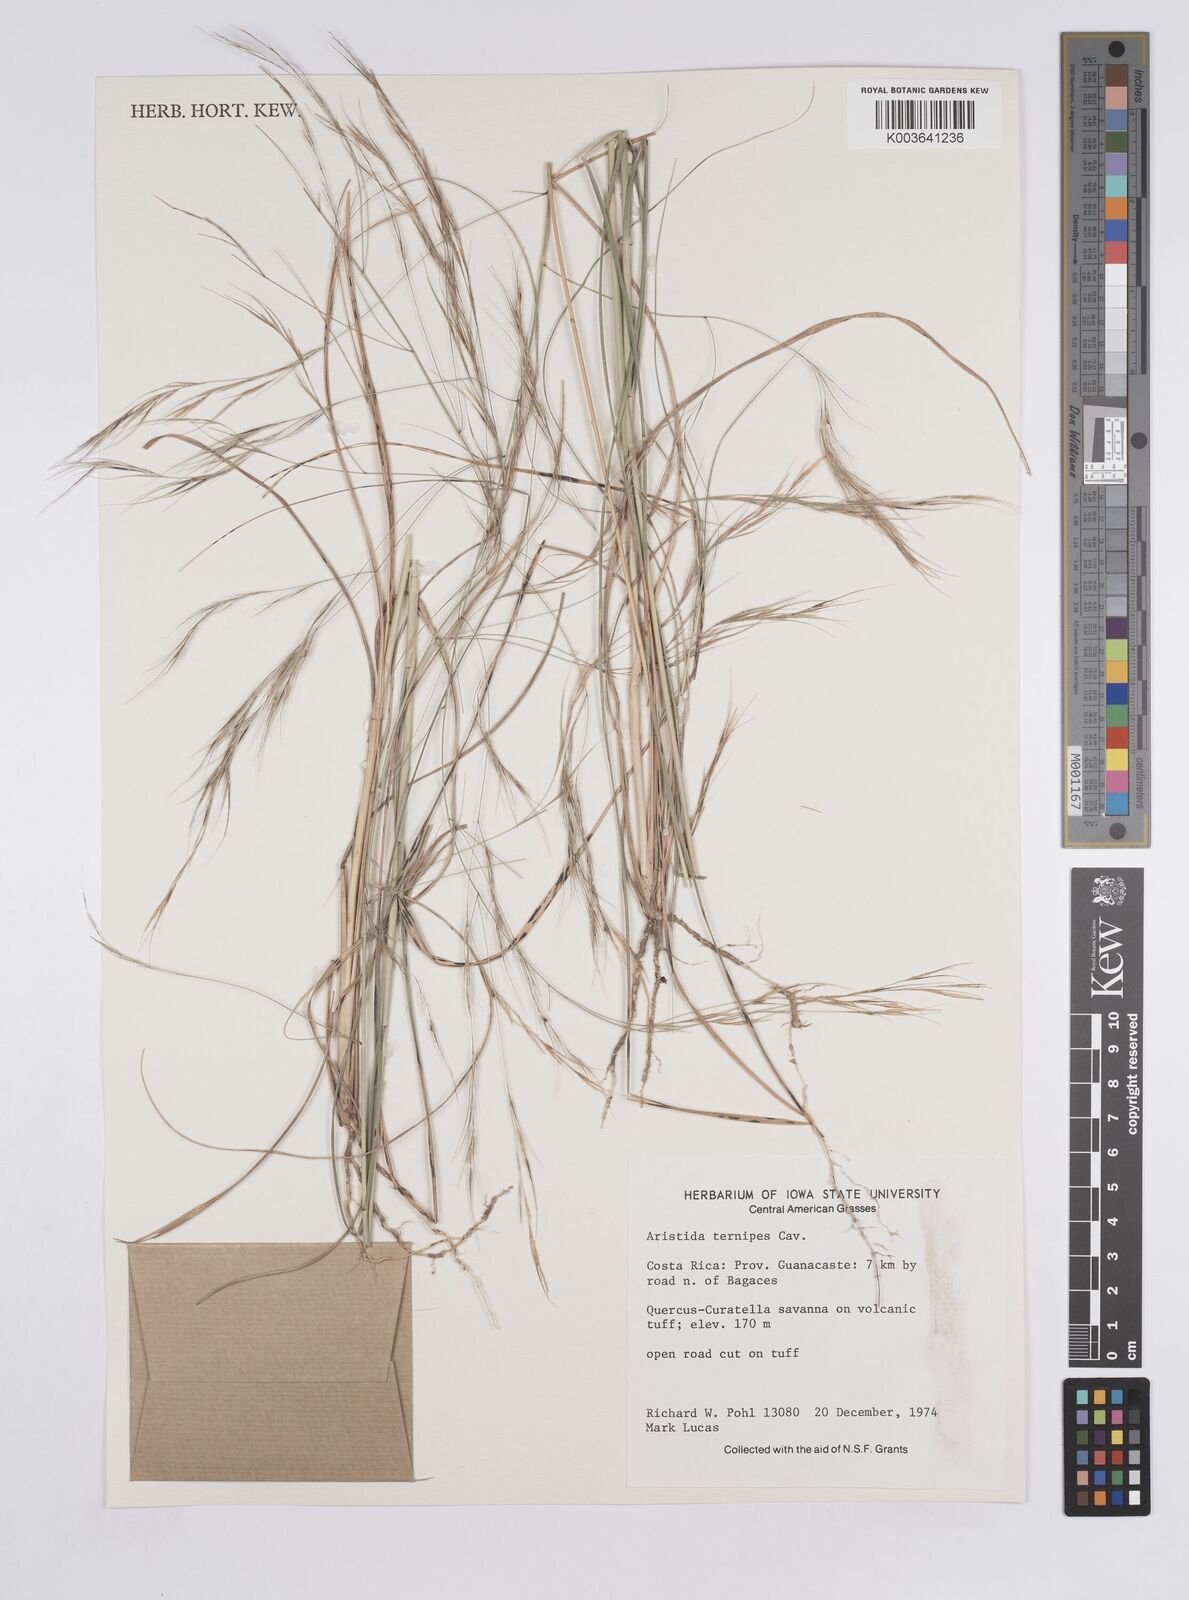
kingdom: Plantae
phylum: Tracheophyta
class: Liliopsida
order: Poales
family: Poaceae
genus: Aristida
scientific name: Aristida
